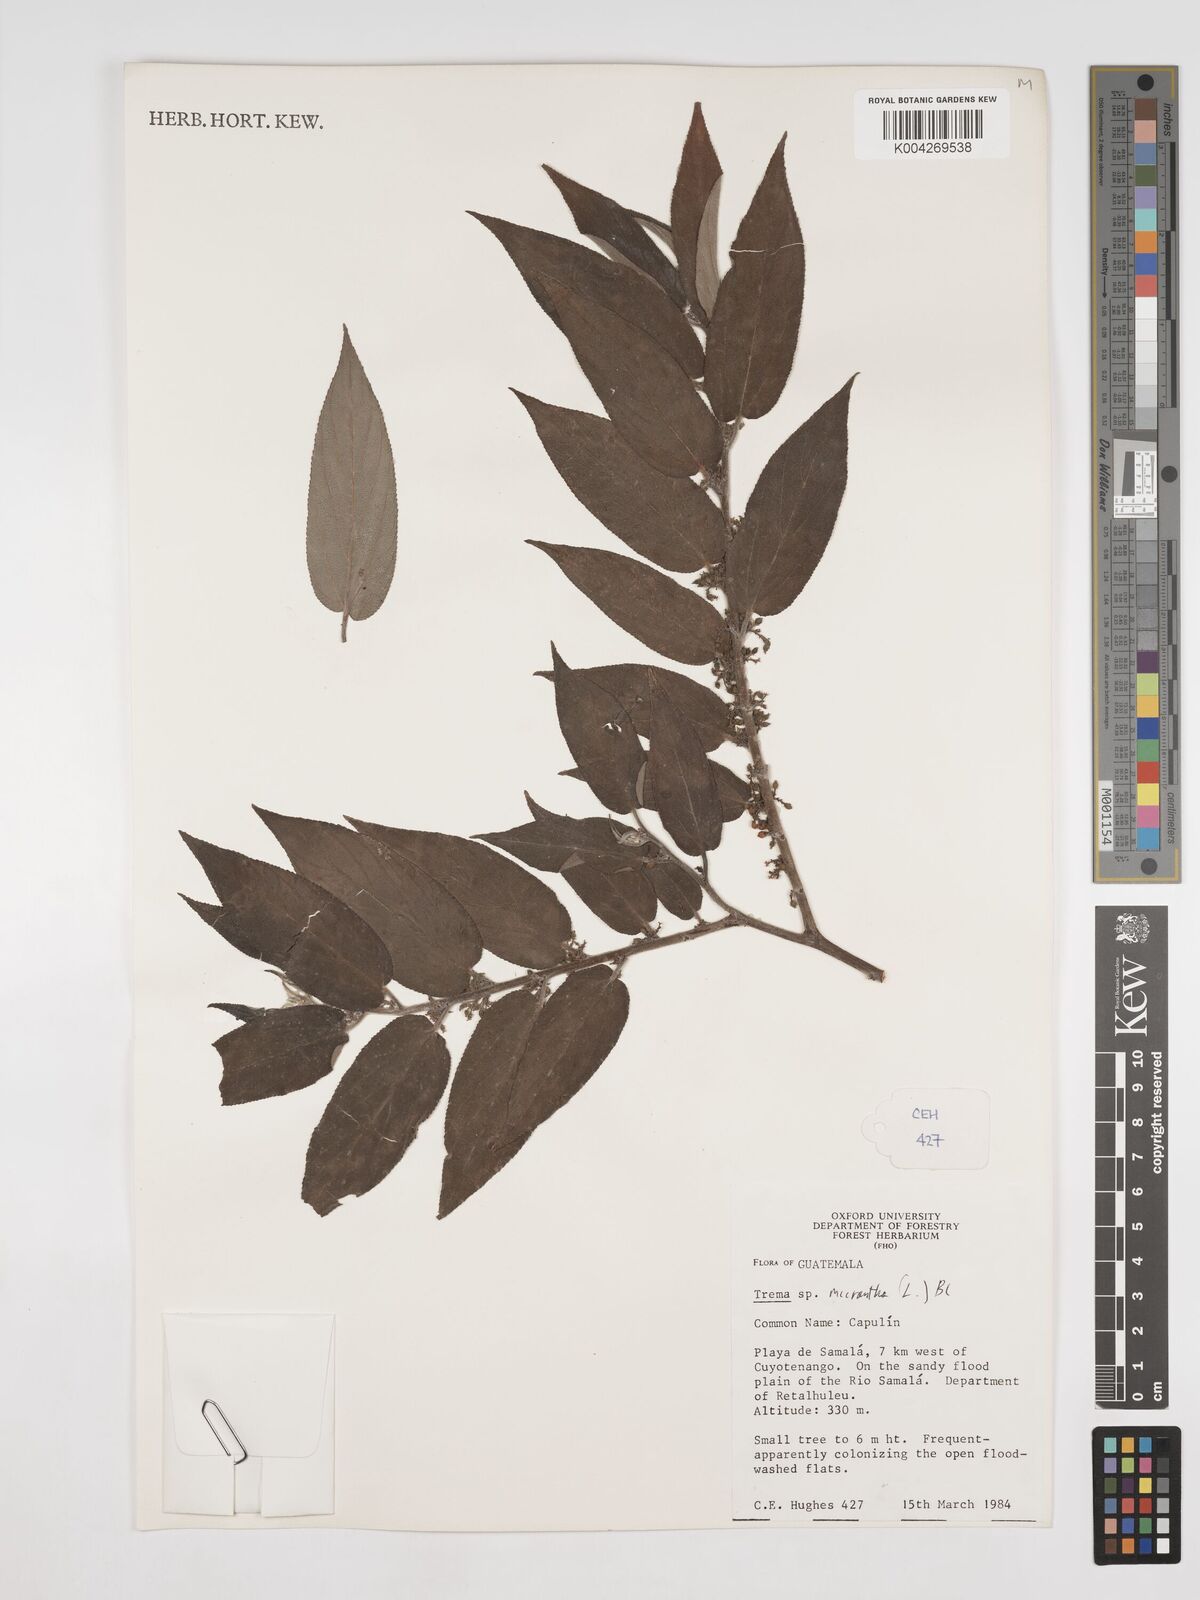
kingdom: Plantae
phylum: Tracheophyta
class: Magnoliopsida
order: Rosales
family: Cannabaceae
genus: Trema
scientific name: Trema micranthum
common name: Jamaican nettletree
